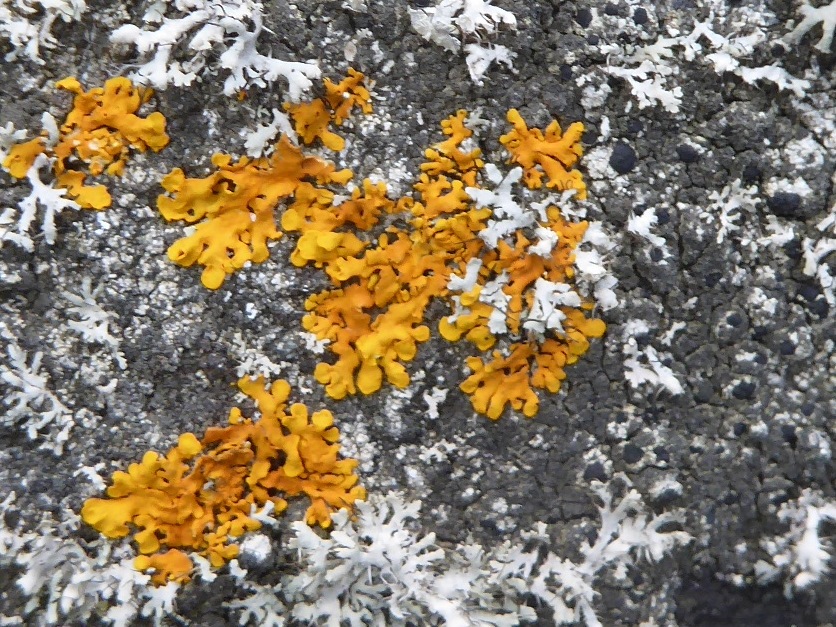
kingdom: Fungi
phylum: Ascomycota
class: Lecanoromycetes
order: Teloschistales
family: Teloschistaceae
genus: Xanthoria
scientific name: Xanthoria aureola
